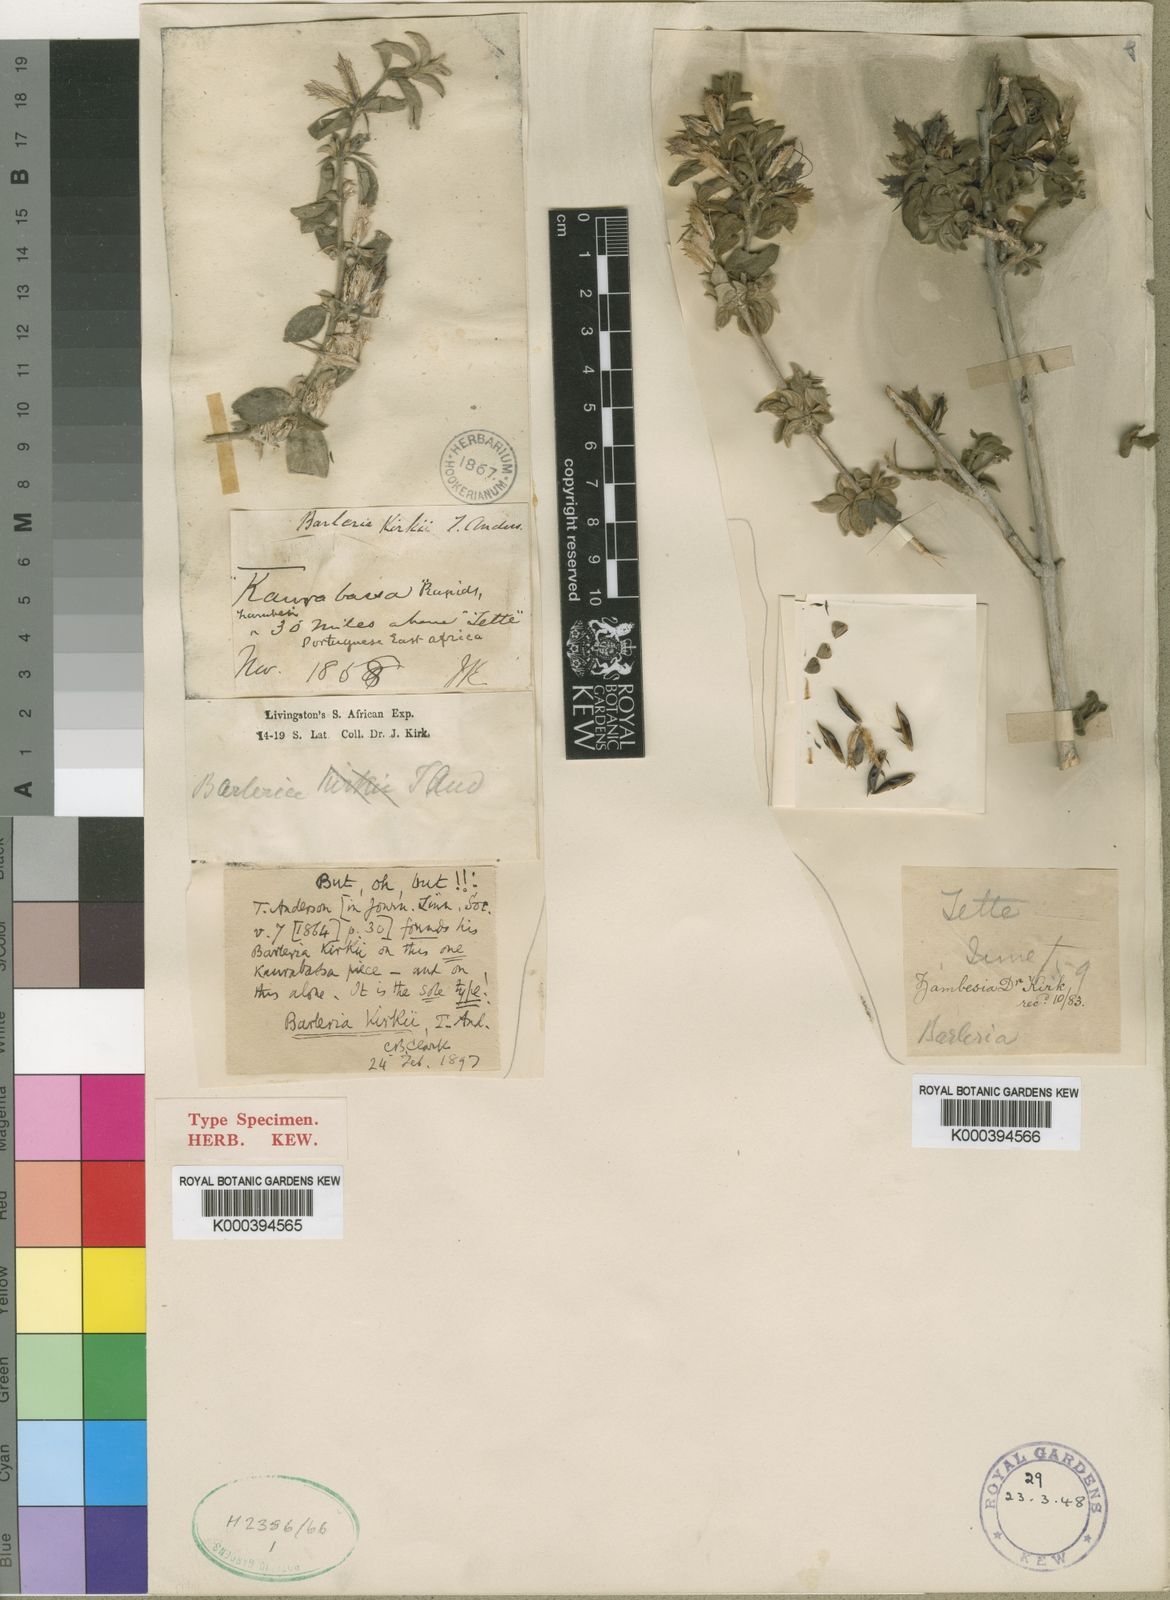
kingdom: Plantae
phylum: Tracheophyta
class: Magnoliopsida
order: Lamiales
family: Acanthaceae
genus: Barleria
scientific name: Barleria spinulosa
